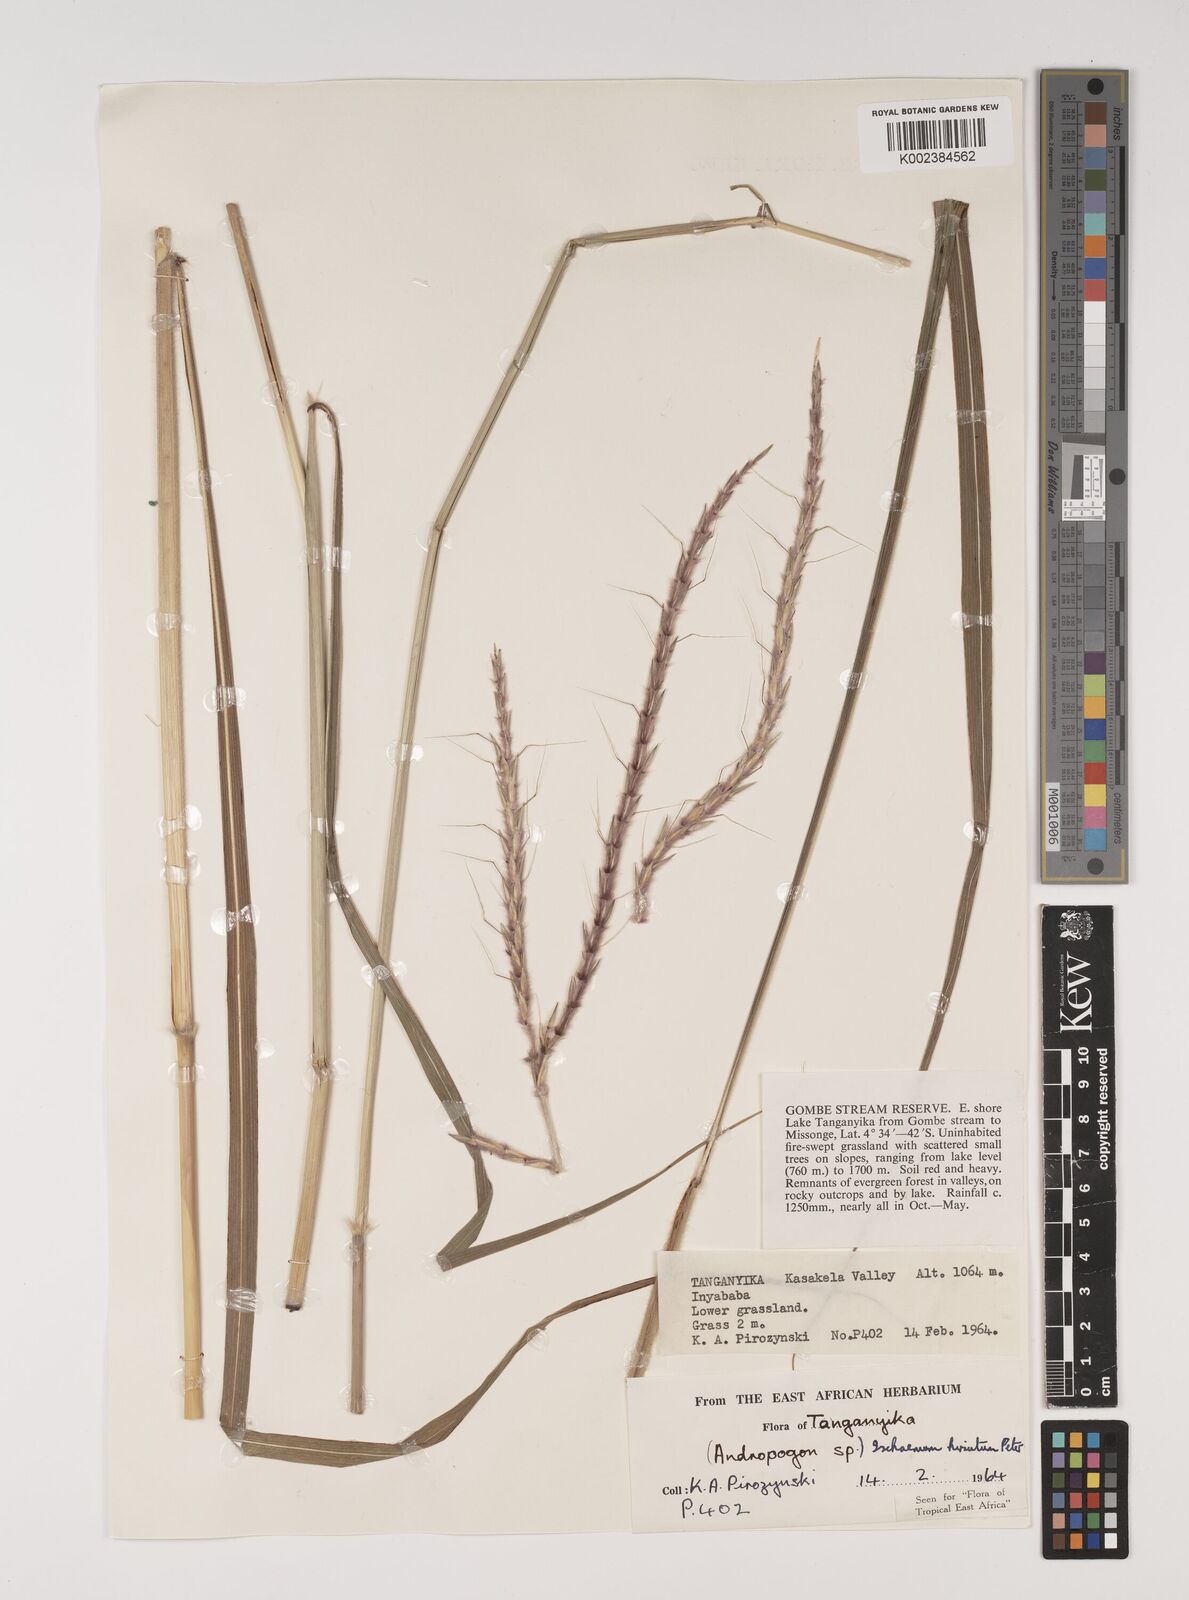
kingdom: Plantae
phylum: Tracheophyta
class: Liliopsida
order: Poales
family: Poaceae
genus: Ischaemum
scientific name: Ischaemum amethystinum
